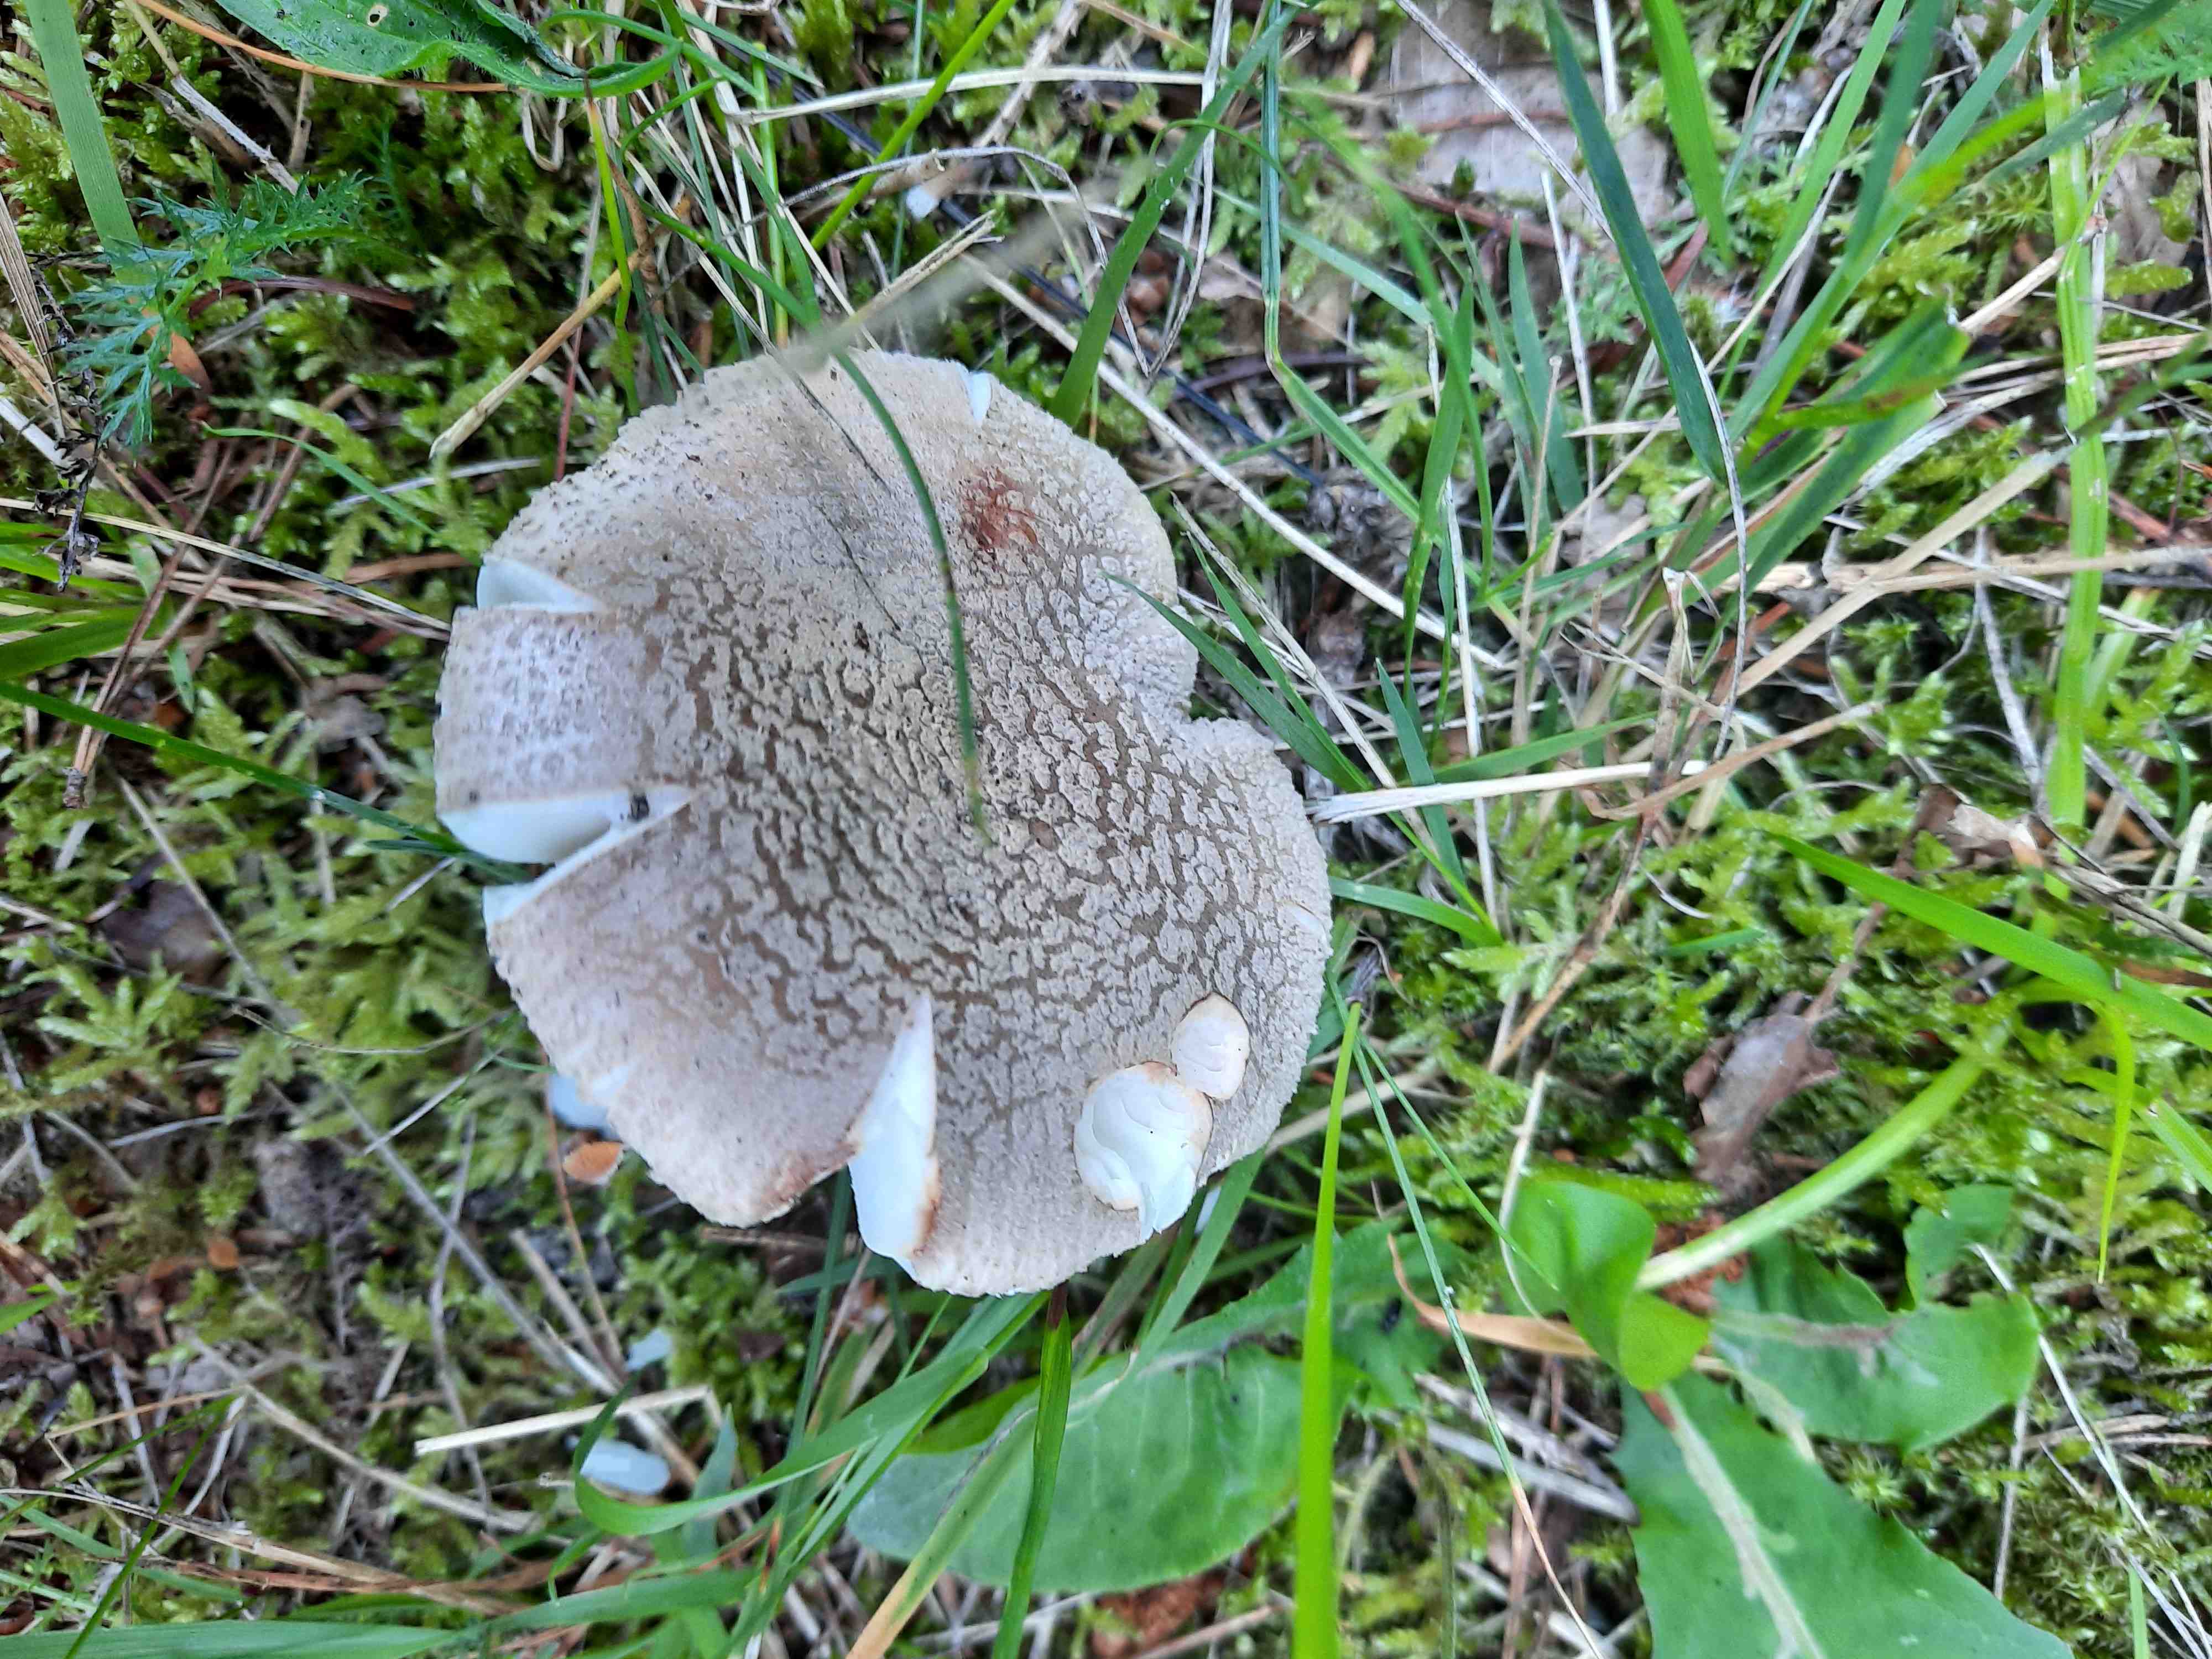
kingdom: Fungi
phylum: Basidiomycota
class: Agaricomycetes
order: Agaricales
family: Amanitaceae
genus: Amanita
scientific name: Amanita rubescens
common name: Blusher
